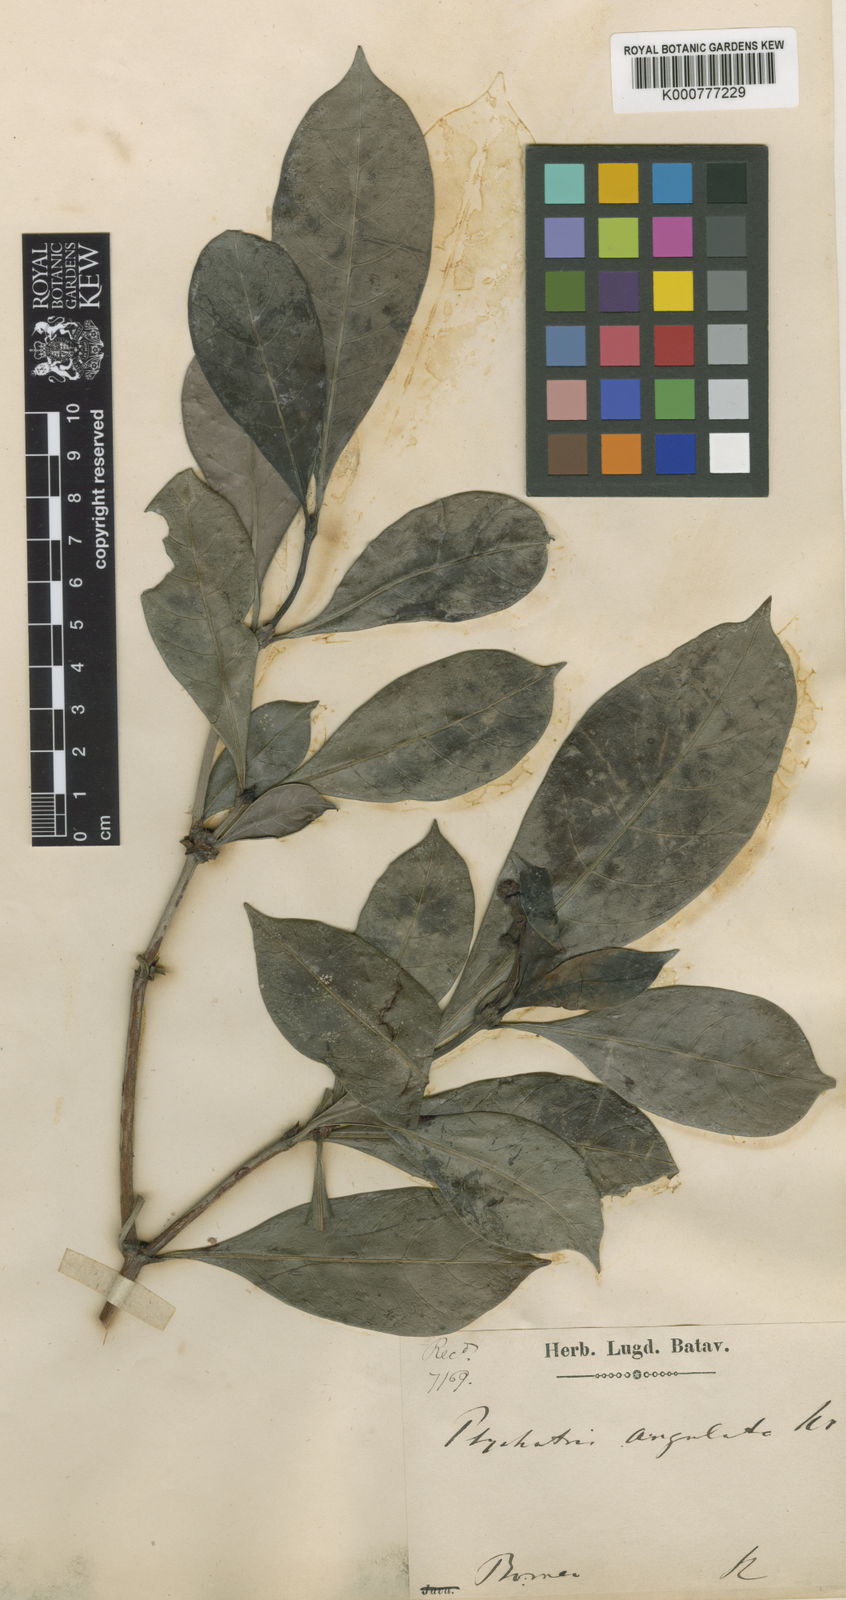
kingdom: Plantae
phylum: Tracheophyta
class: Magnoliopsida
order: Gentianales
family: Rubiaceae
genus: Psychotria
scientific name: Psychotria angulata
